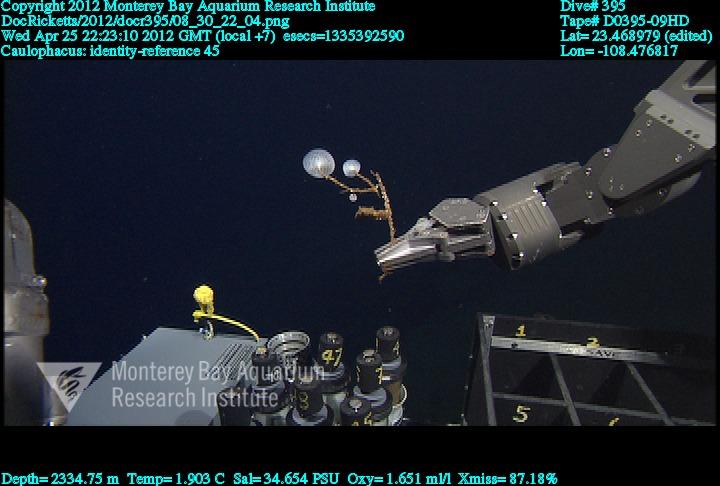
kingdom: Animalia
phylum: Porifera
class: Hexactinellida
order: Lyssacinosida
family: Rossellidae
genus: Caulophacus
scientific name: Caulophacus
